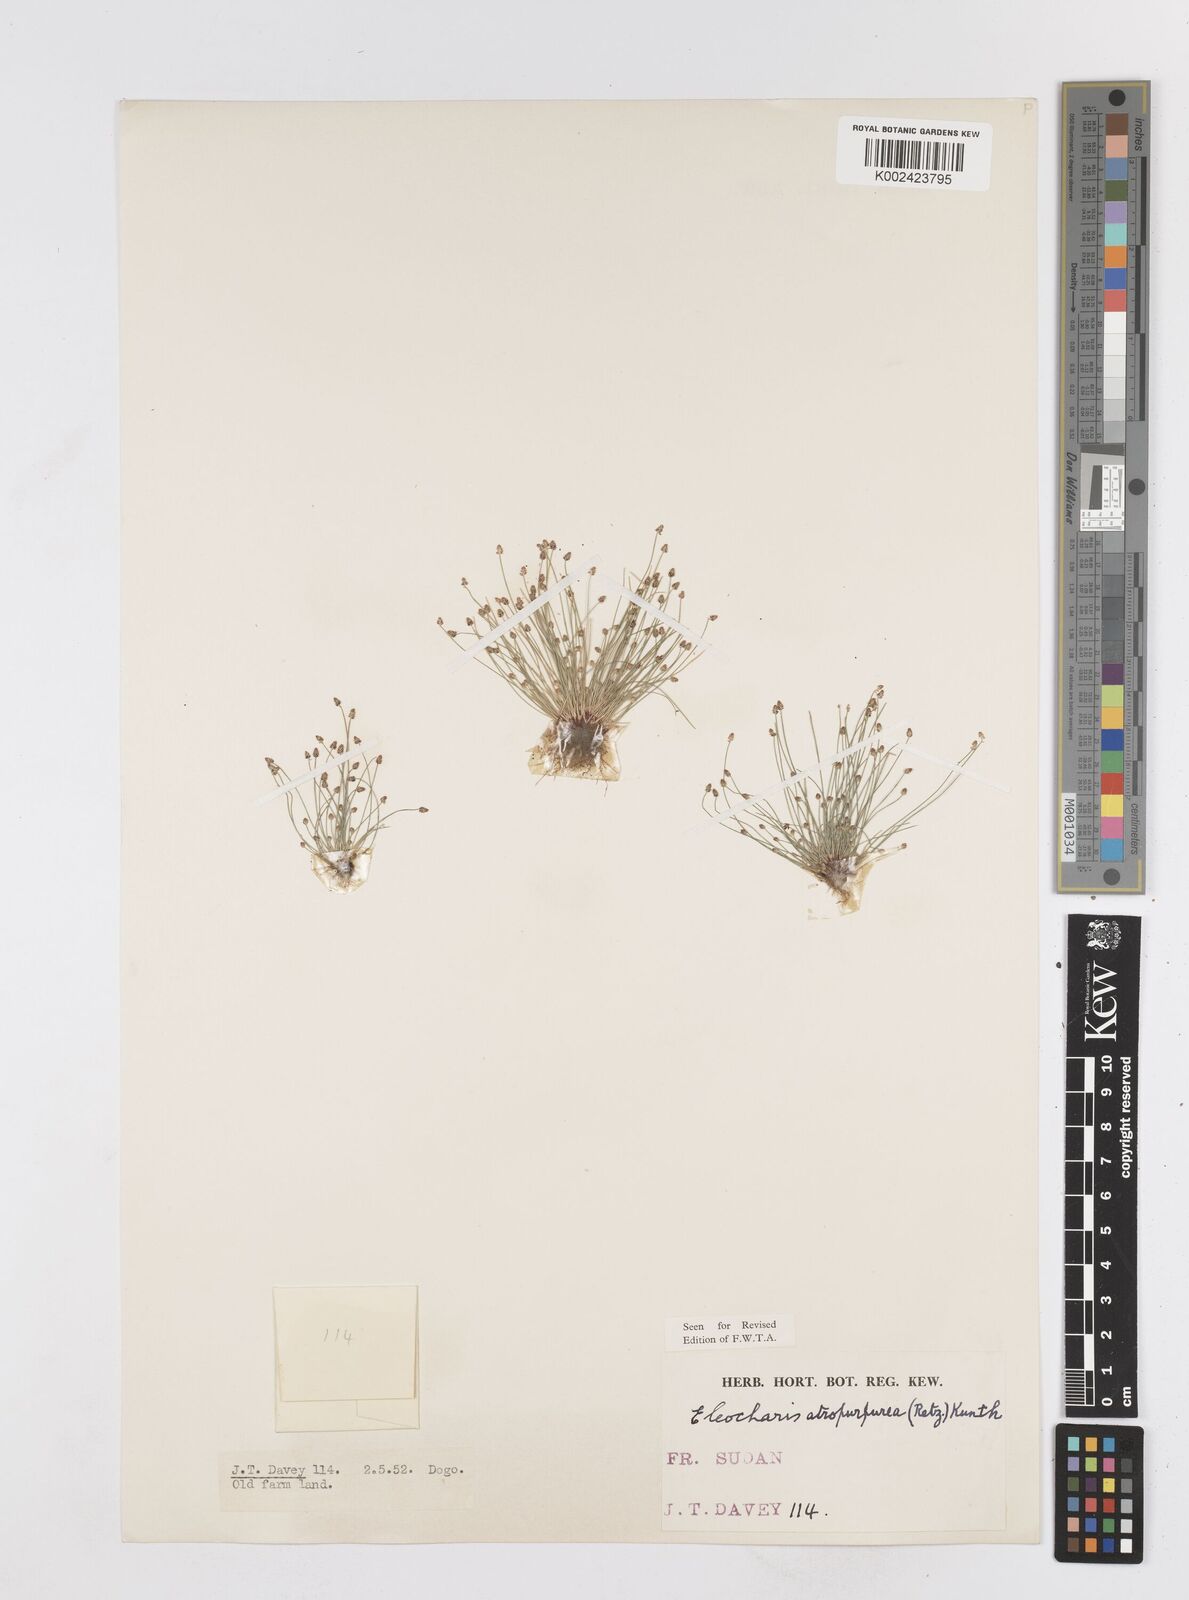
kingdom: Plantae
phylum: Tracheophyta
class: Liliopsida
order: Poales
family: Cyperaceae
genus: Eleocharis
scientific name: Eleocharis atropurpurea
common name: Purple spikerush
